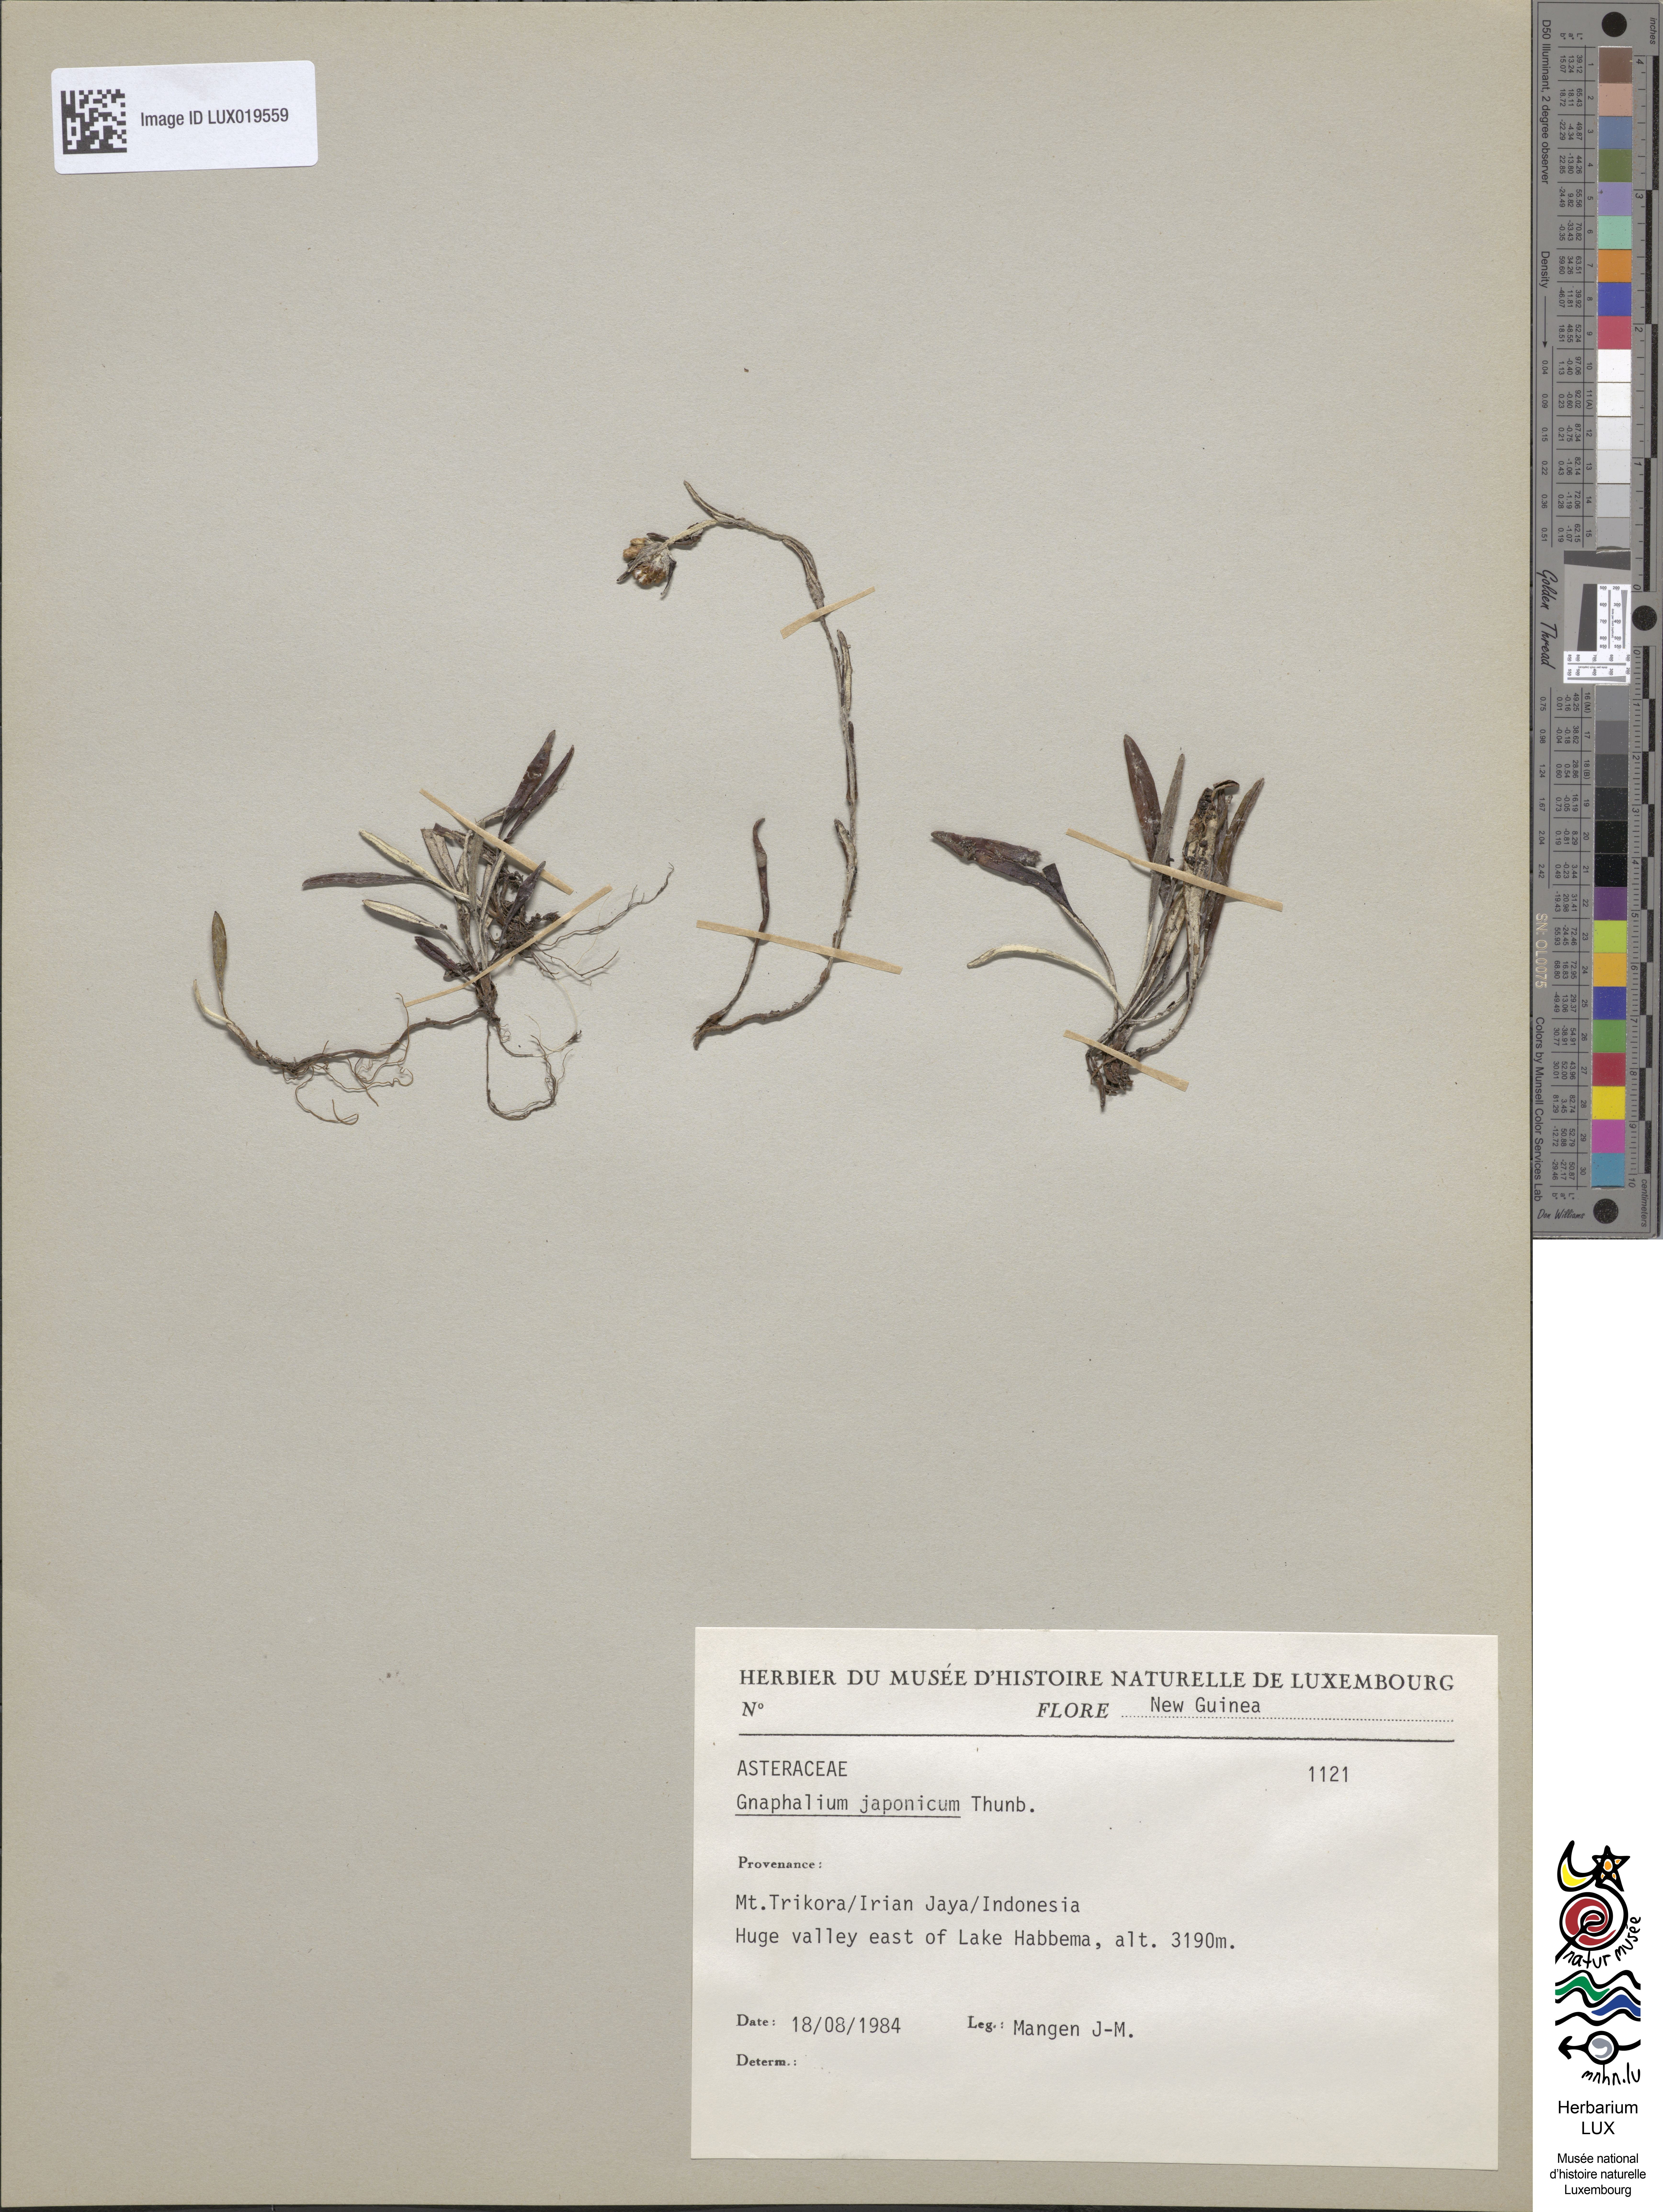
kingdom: Plantae
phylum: Tracheophyta
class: Magnoliopsida
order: Asterales
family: Asteraceae
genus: Euchiton
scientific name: Euchiton japonicus
